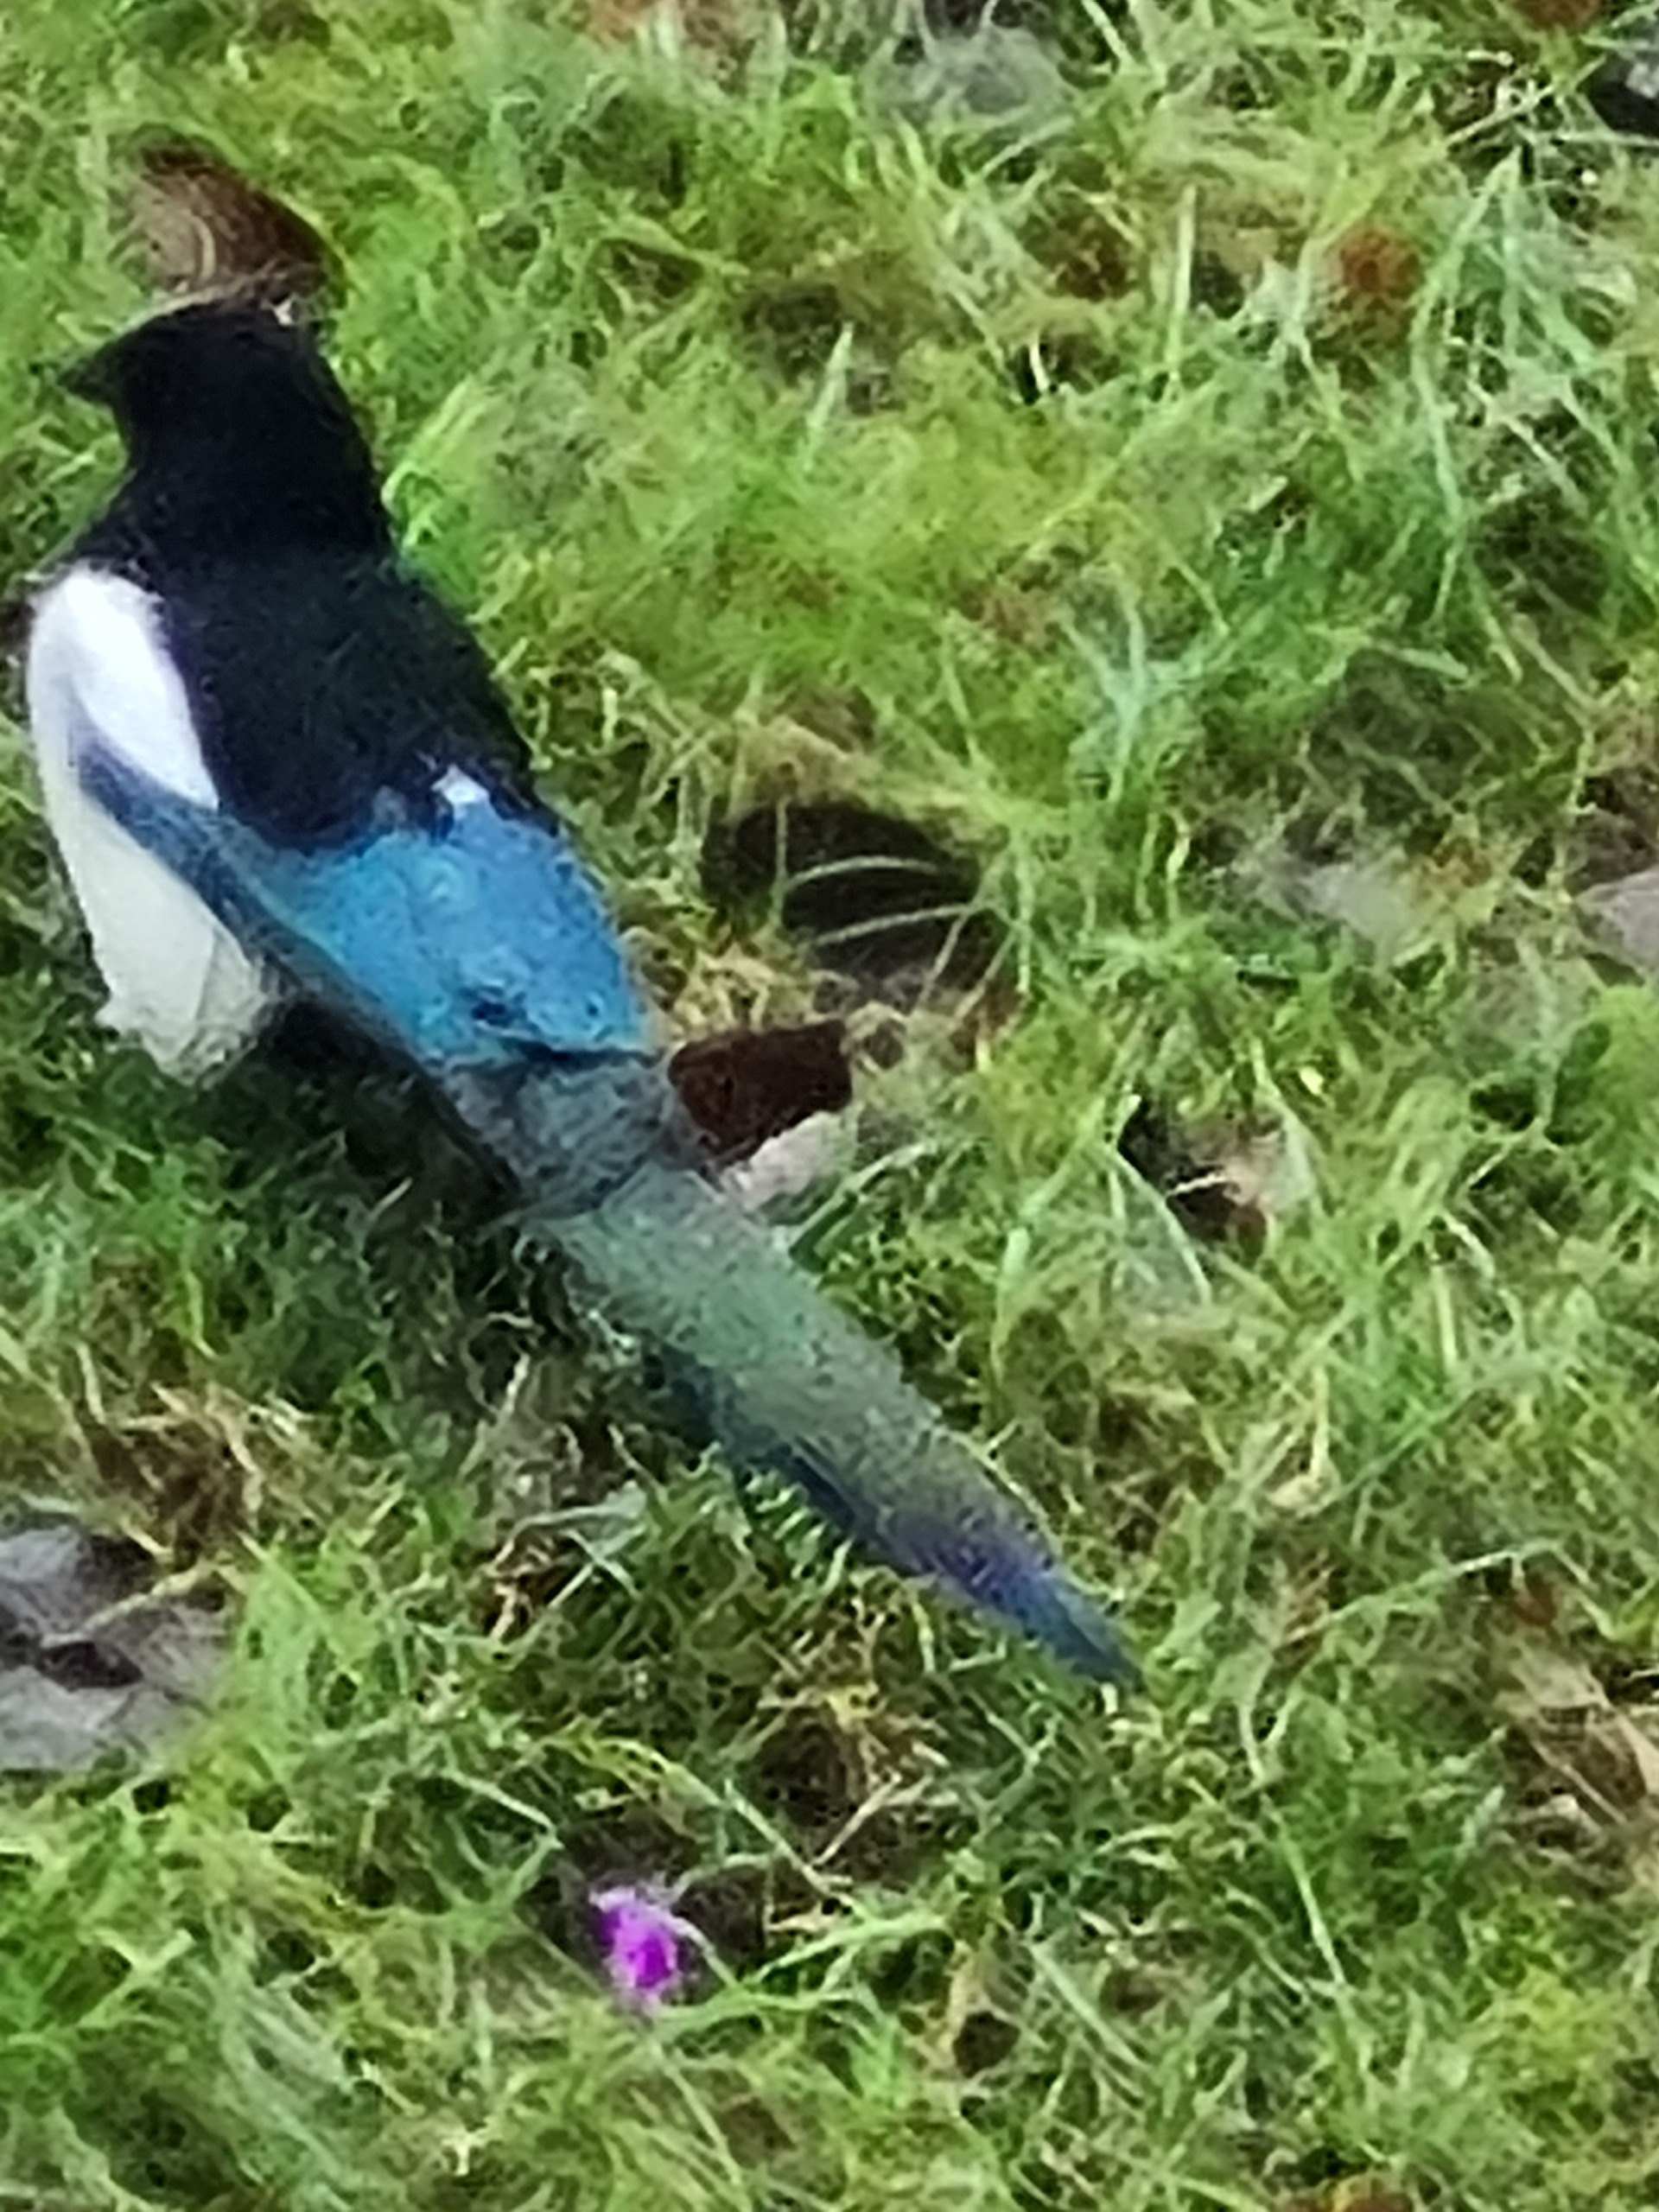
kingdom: Animalia
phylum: Chordata
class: Aves
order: Passeriformes
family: Corvidae
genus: Pica
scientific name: Pica pica
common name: Husskade
